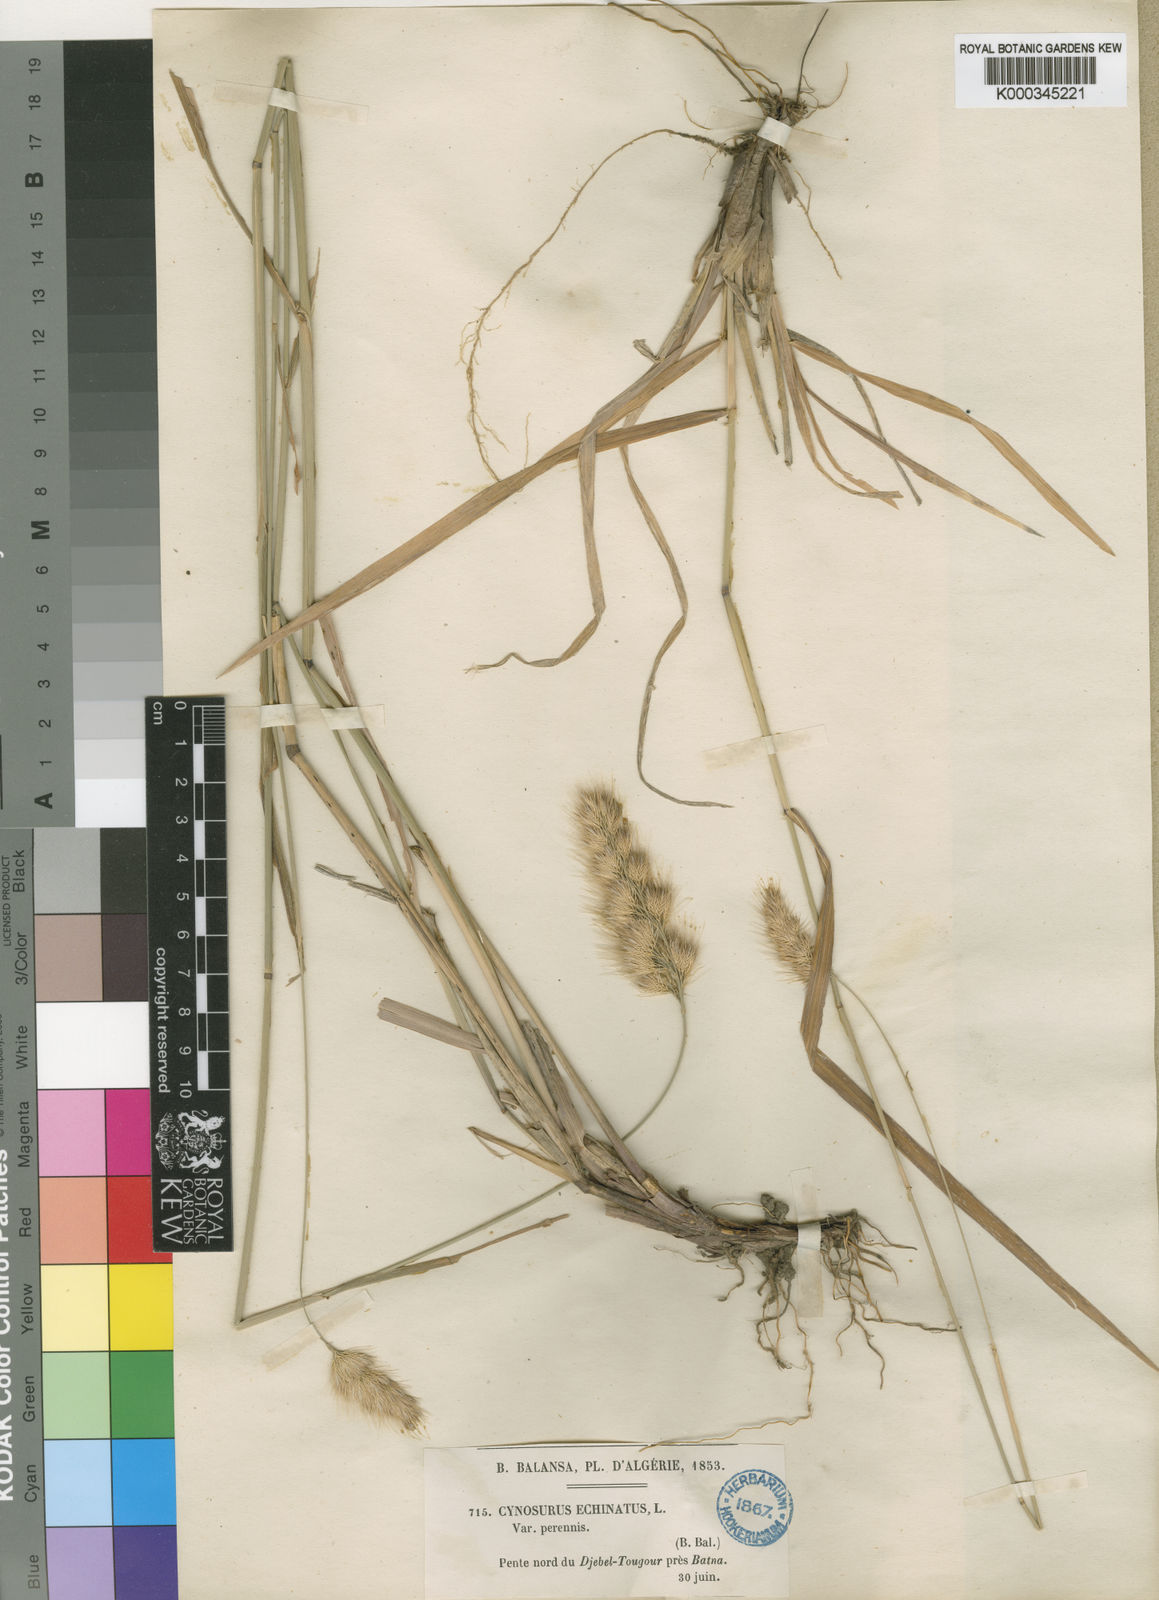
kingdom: Plantae
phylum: Tracheophyta
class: Liliopsida
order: Poales
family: Poaceae
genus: Cynosurus
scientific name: Cynosurus balansae
